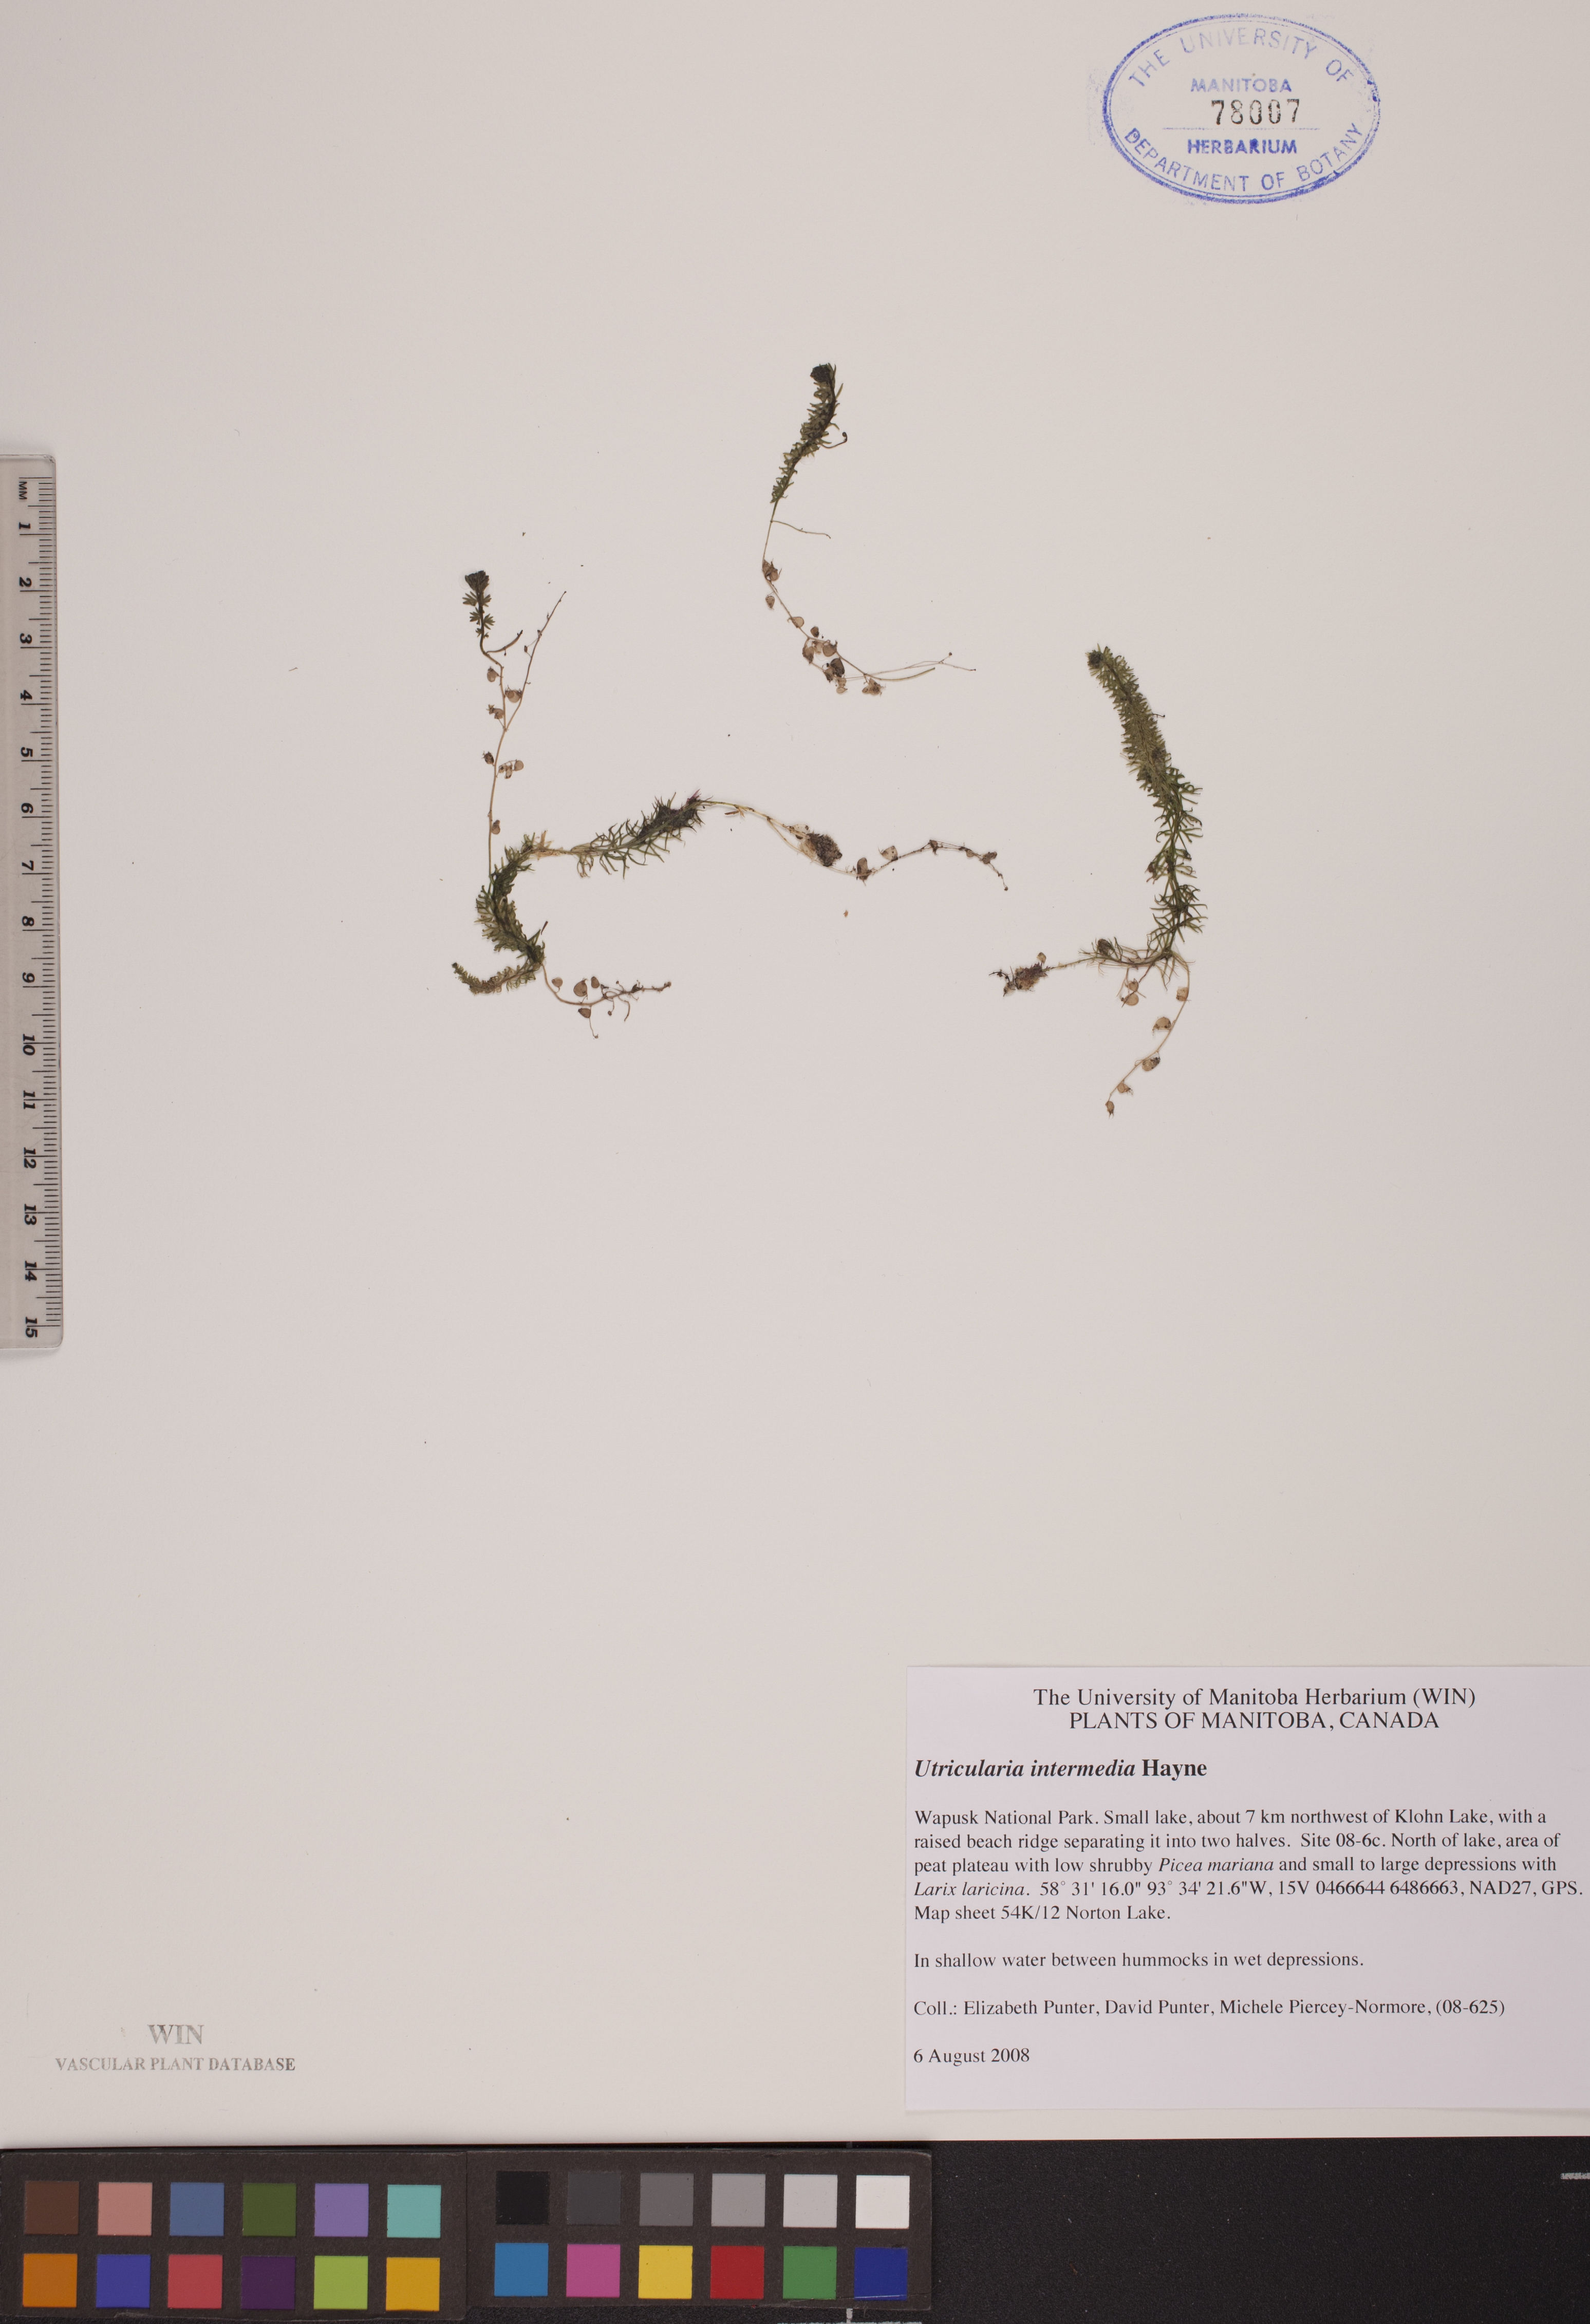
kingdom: Plantae
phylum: Tracheophyta
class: Magnoliopsida
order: Lamiales
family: Lentibulariaceae
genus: Utricularia
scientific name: Utricularia intermedia
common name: Intermediate bladderwort
